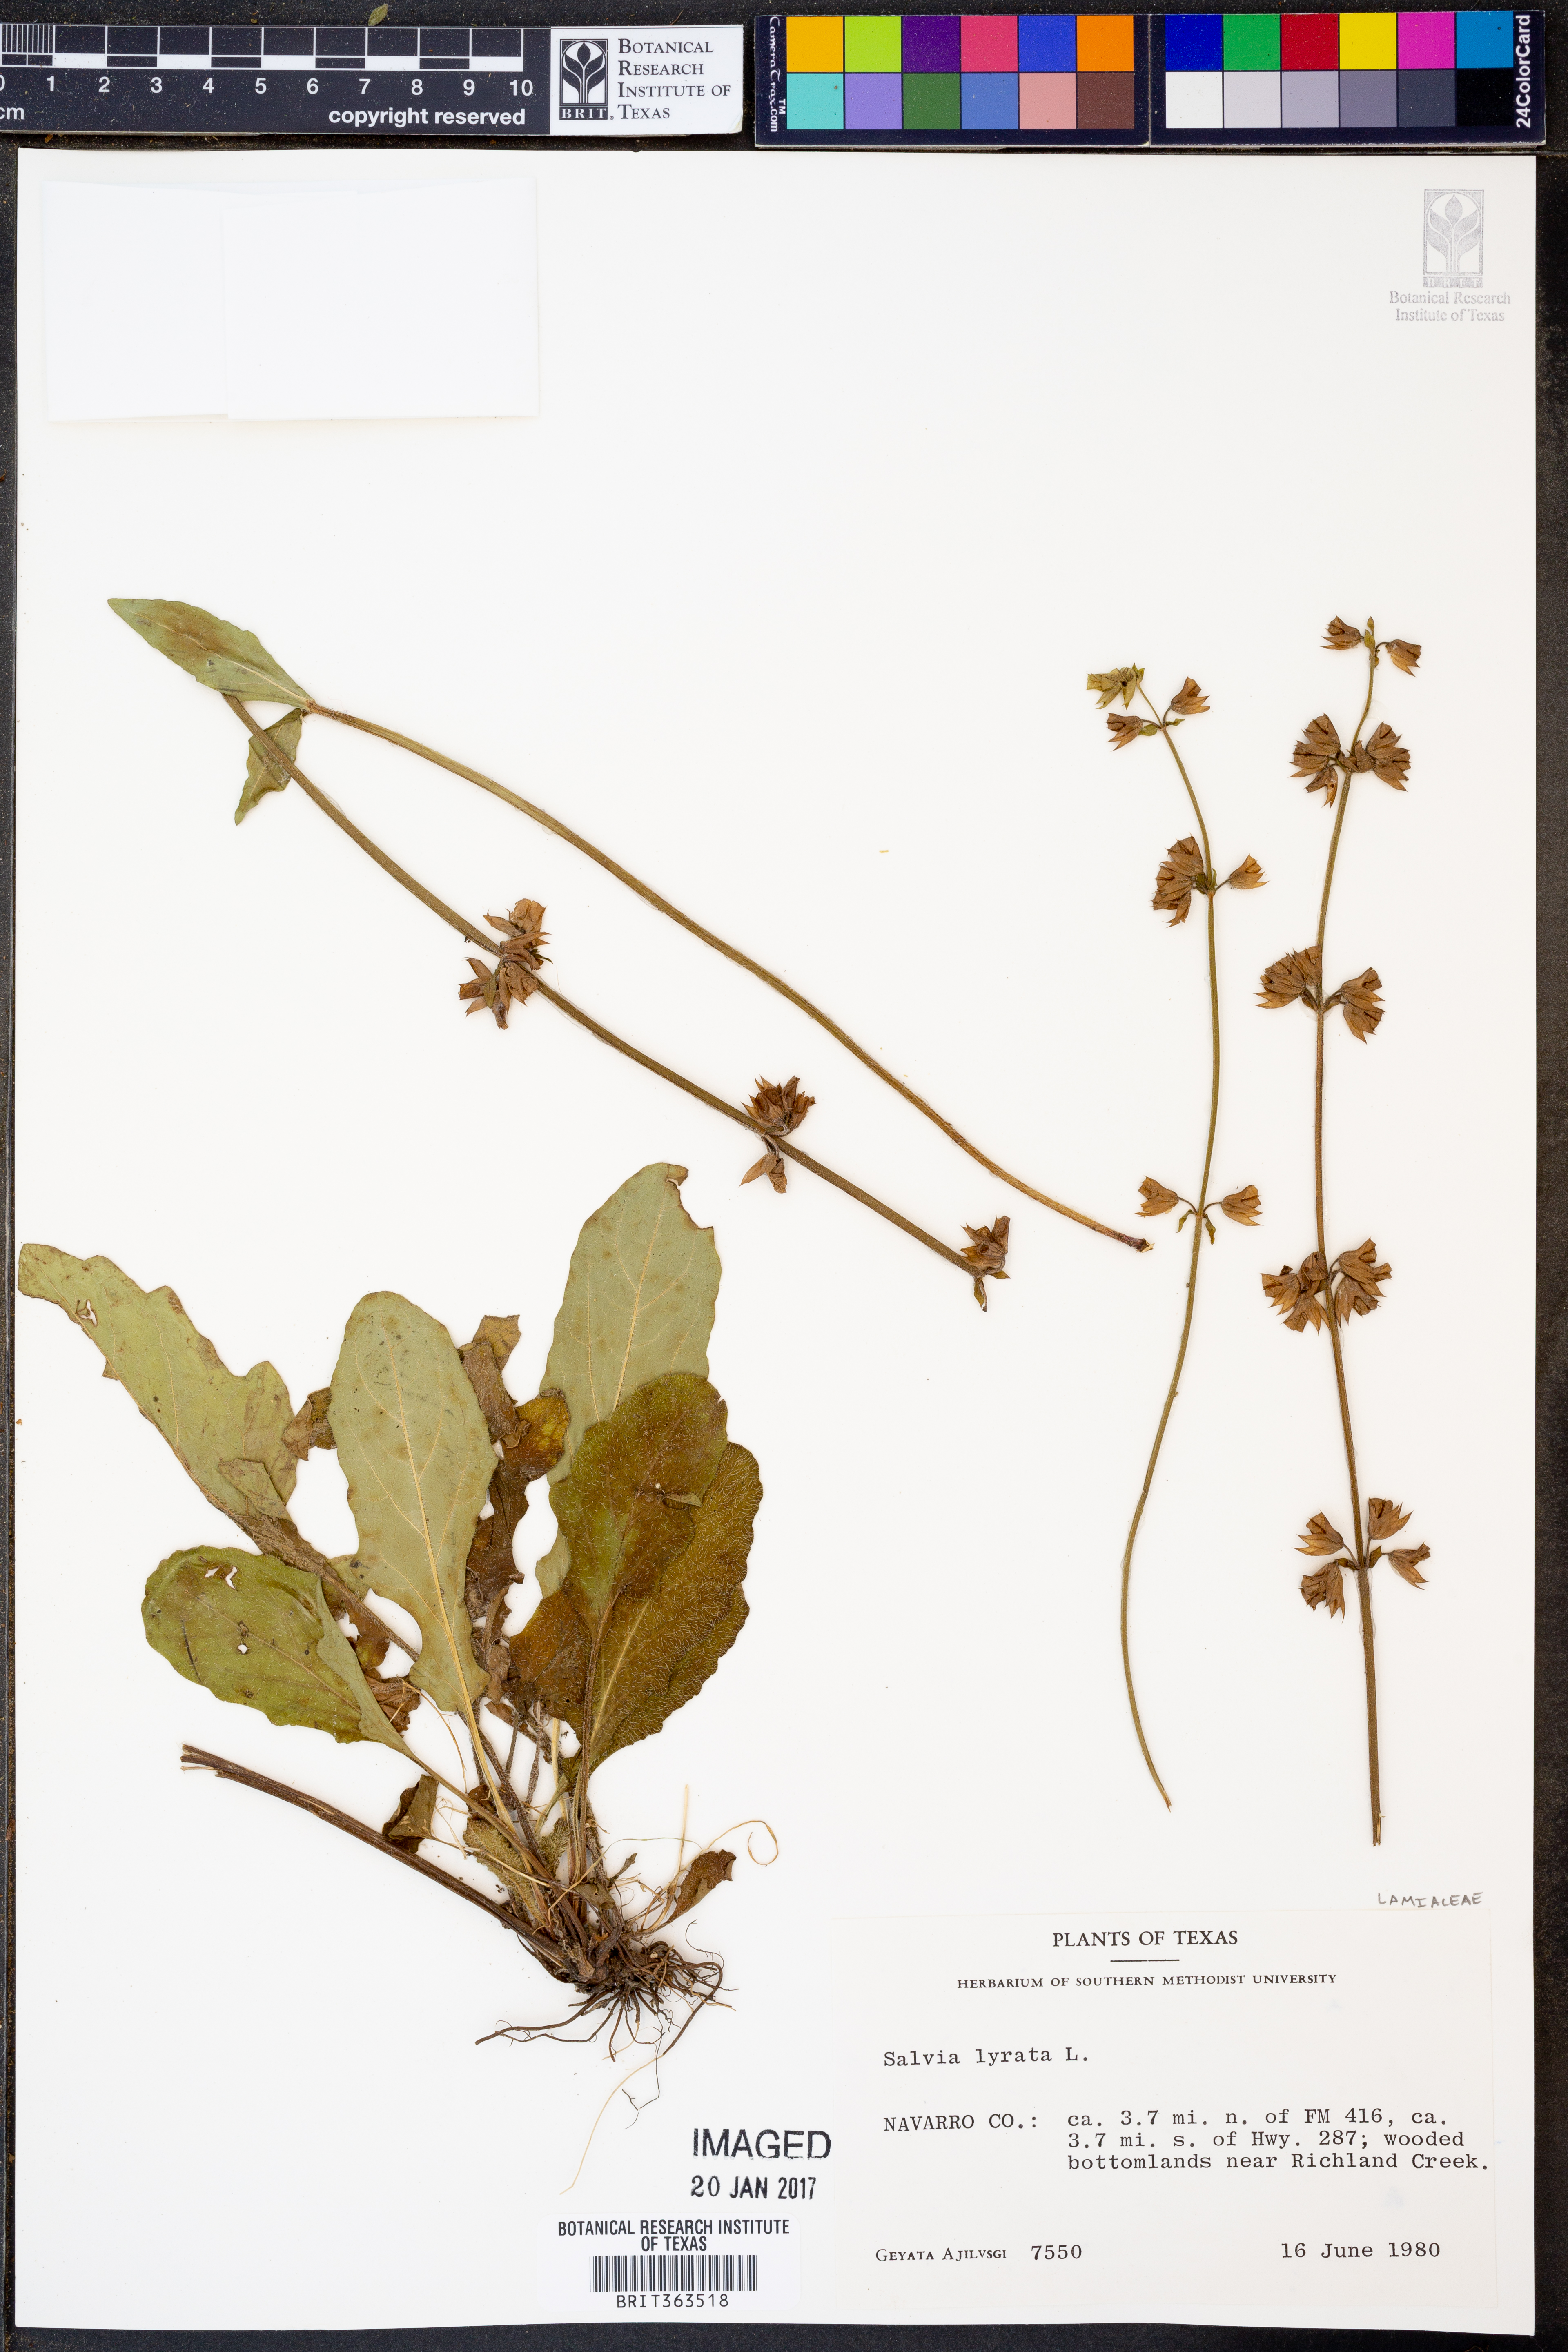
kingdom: Plantae
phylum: Tracheophyta
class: Magnoliopsida
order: Lamiales
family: Lamiaceae
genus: Salvia
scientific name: Salvia lyrata
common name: Cancerweed
